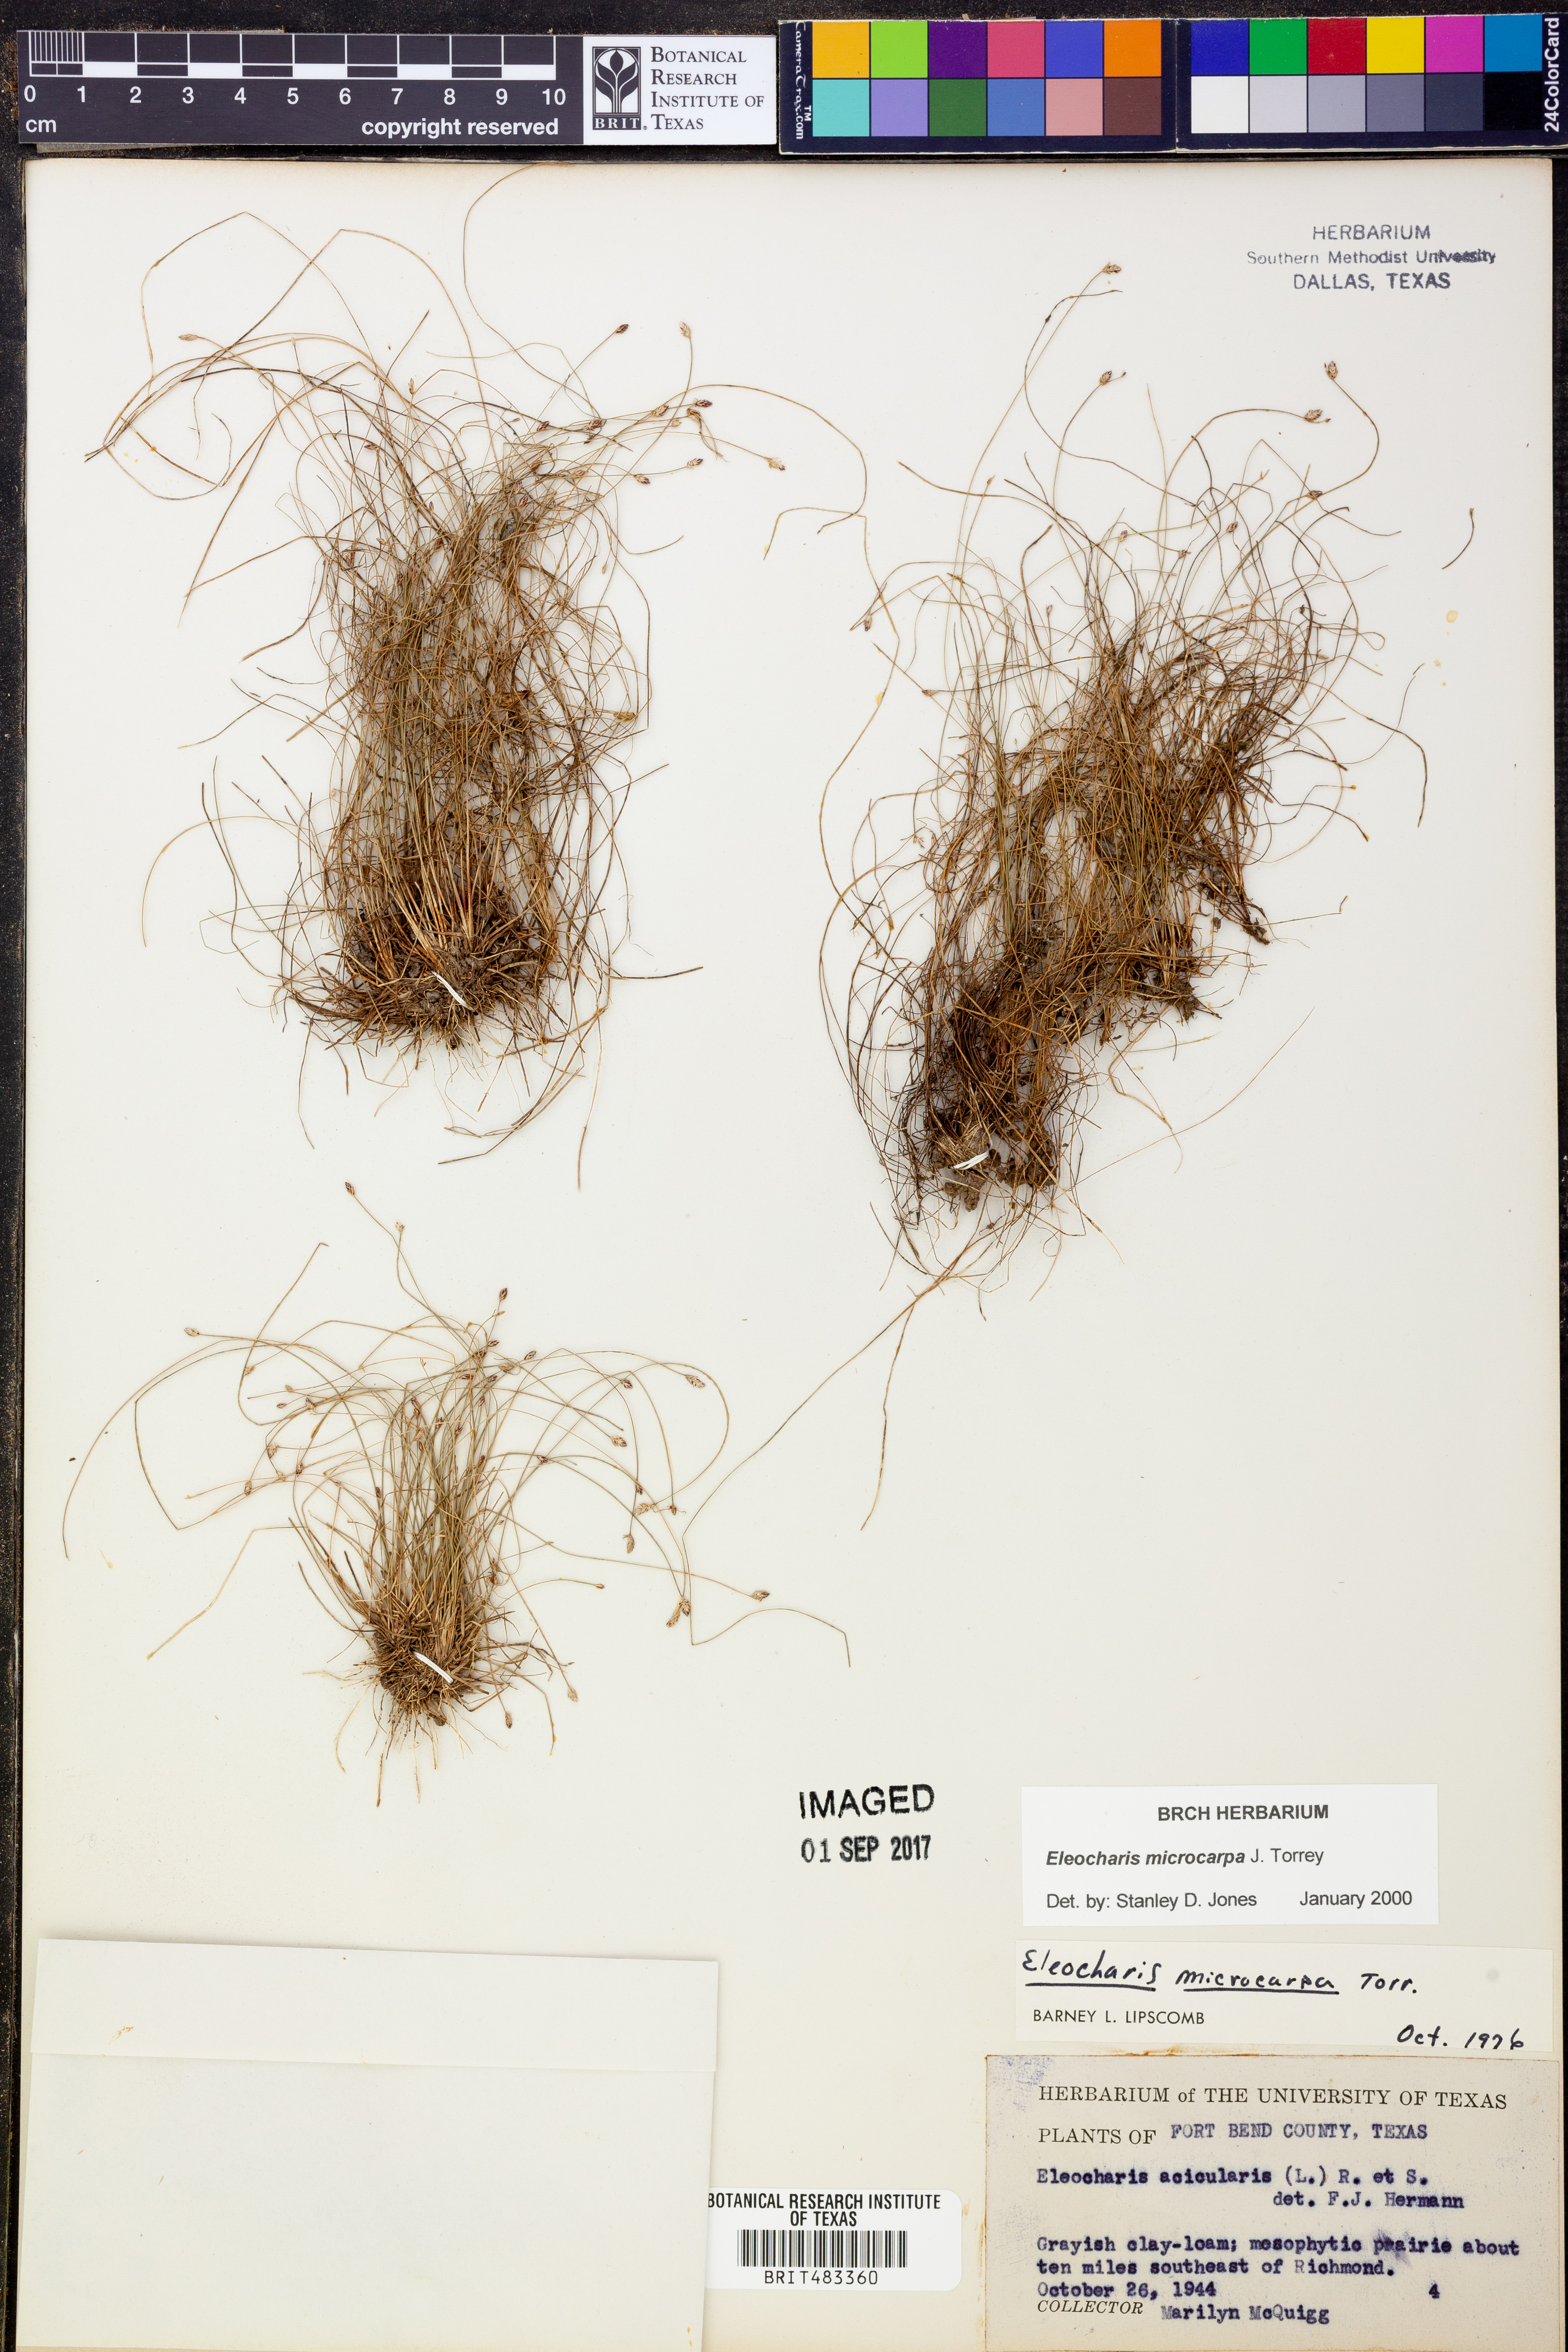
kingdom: Plantae
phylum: Tracheophyta
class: Liliopsida
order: Poales
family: Cyperaceae
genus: Eleocharis
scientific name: Eleocharis microcarpa
